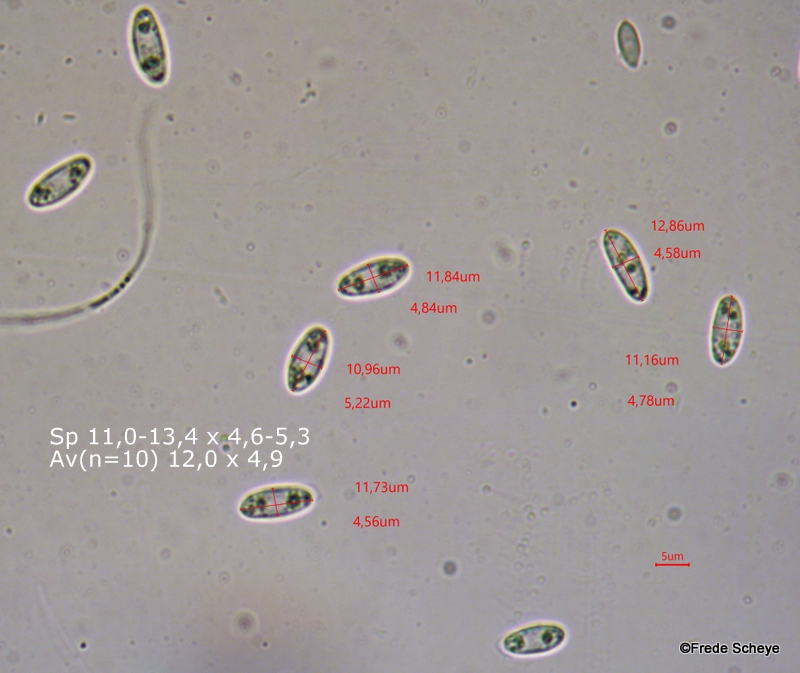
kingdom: Fungi
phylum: Ascomycota
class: Leotiomycetes
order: Helotiales
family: Pezizellaceae
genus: Calycina
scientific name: Calycina citrina
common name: almindelig gulskive
